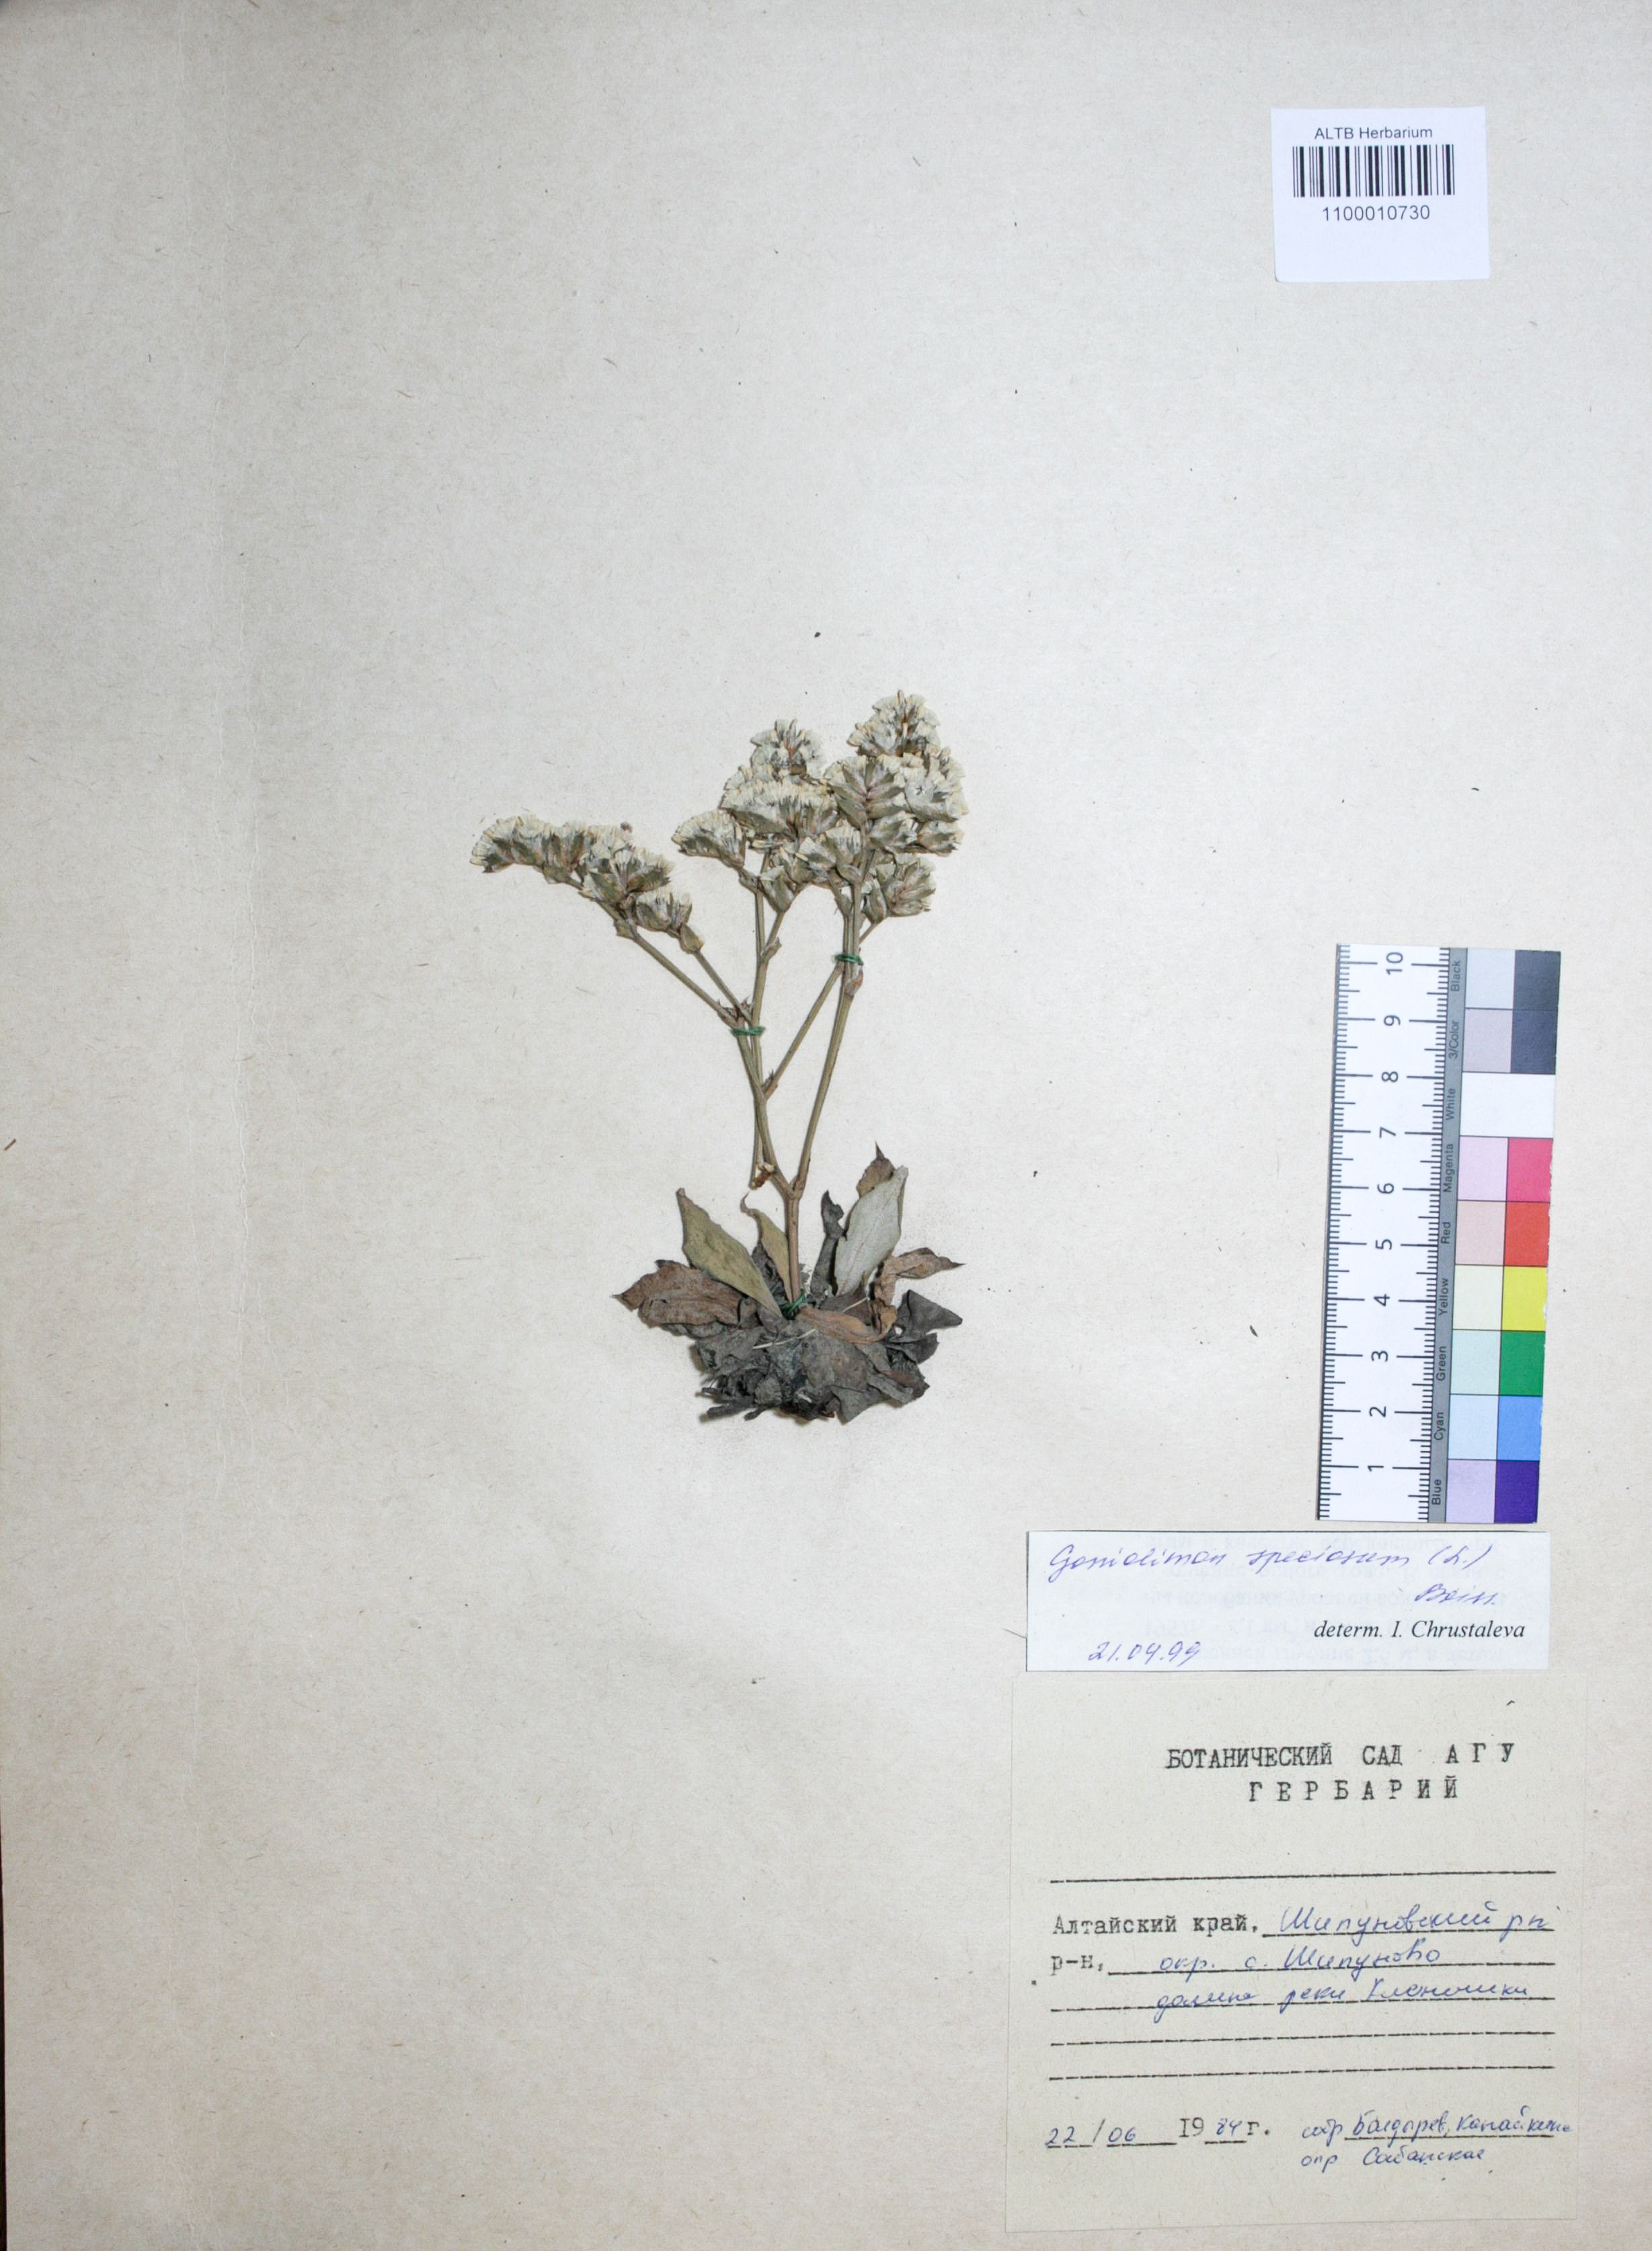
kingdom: Plantae
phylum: Tracheophyta
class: Magnoliopsida
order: Caryophyllales
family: Plumbaginaceae
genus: Goniolimon
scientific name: Goniolimon speciosum
